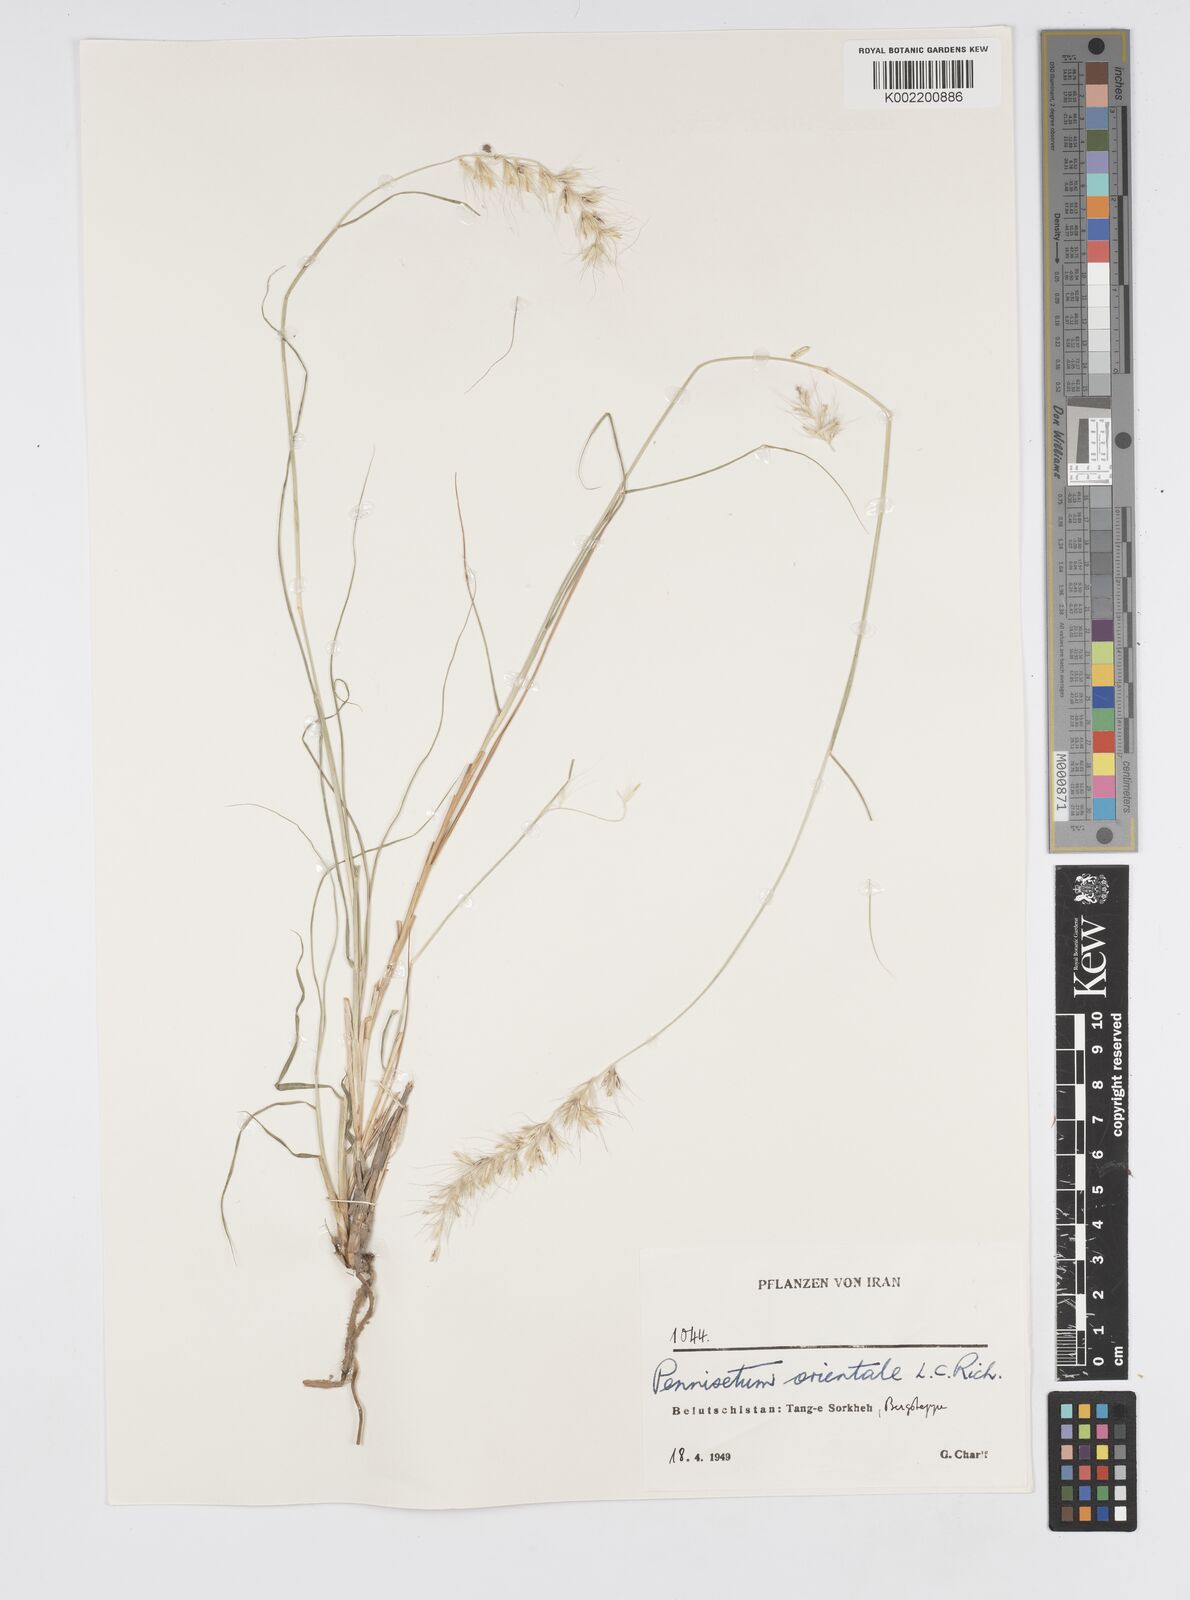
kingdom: Plantae
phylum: Tracheophyta
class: Liliopsida
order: Poales
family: Poaceae
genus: Cenchrus
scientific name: Cenchrus orientalis
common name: Oriental fountain grass
